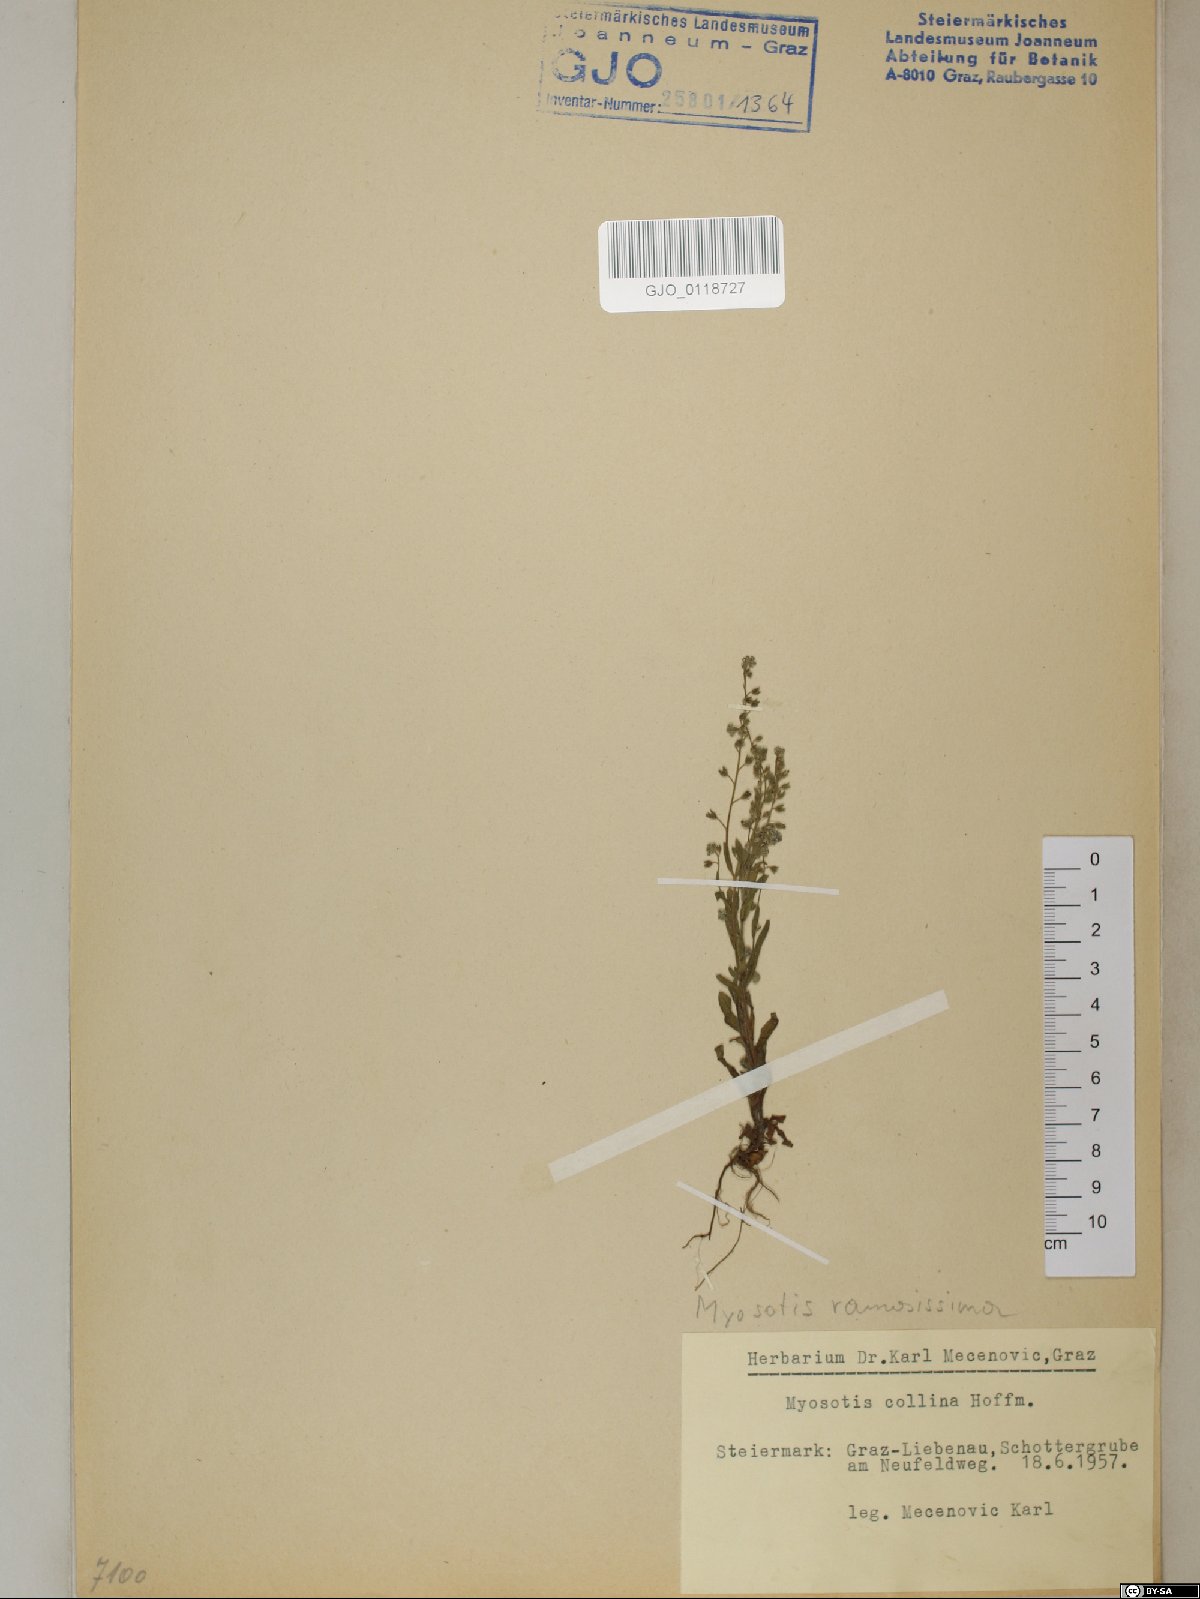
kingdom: Plantae
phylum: Tracheophyta
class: Magnoliopsida
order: Boraginales
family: Boraginaceae
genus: Myosotis
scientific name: Myosotis discolor
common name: Changing forget-me-not
